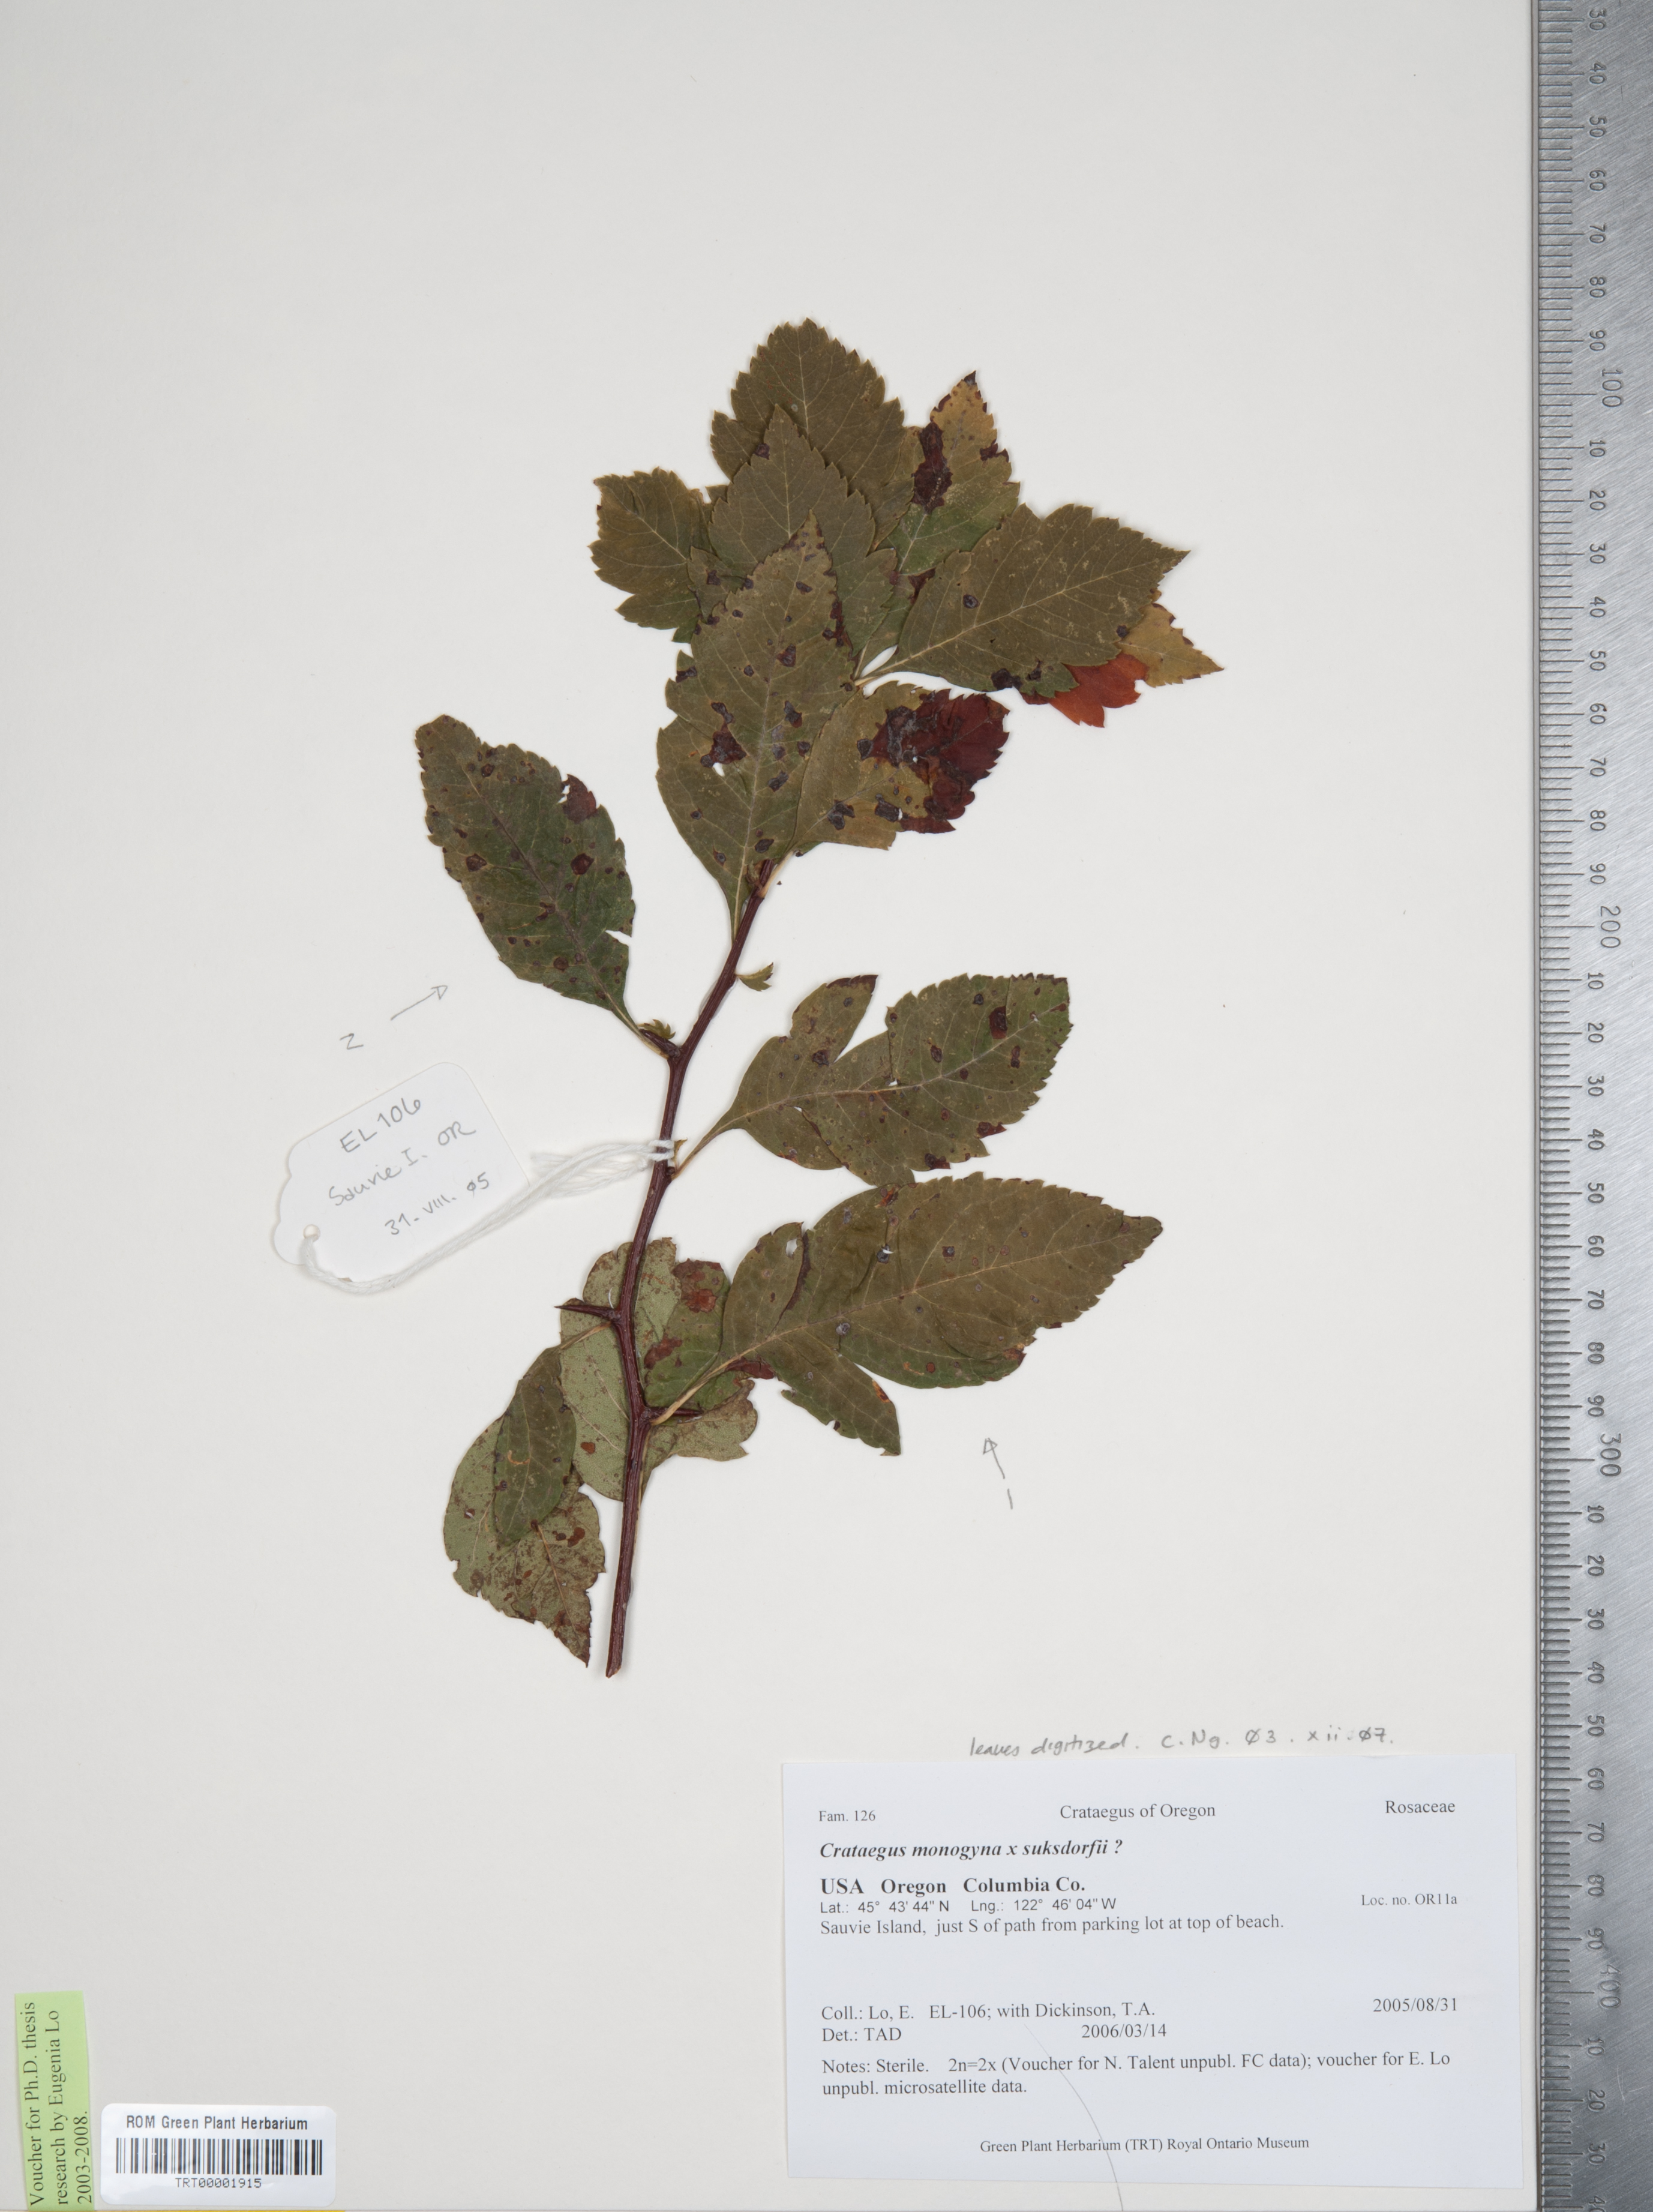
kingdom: Plantae
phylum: Tracheophyta
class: Magnoliopsida
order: Rosales
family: Rosaceae
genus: Crataegus
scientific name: Crataegus
